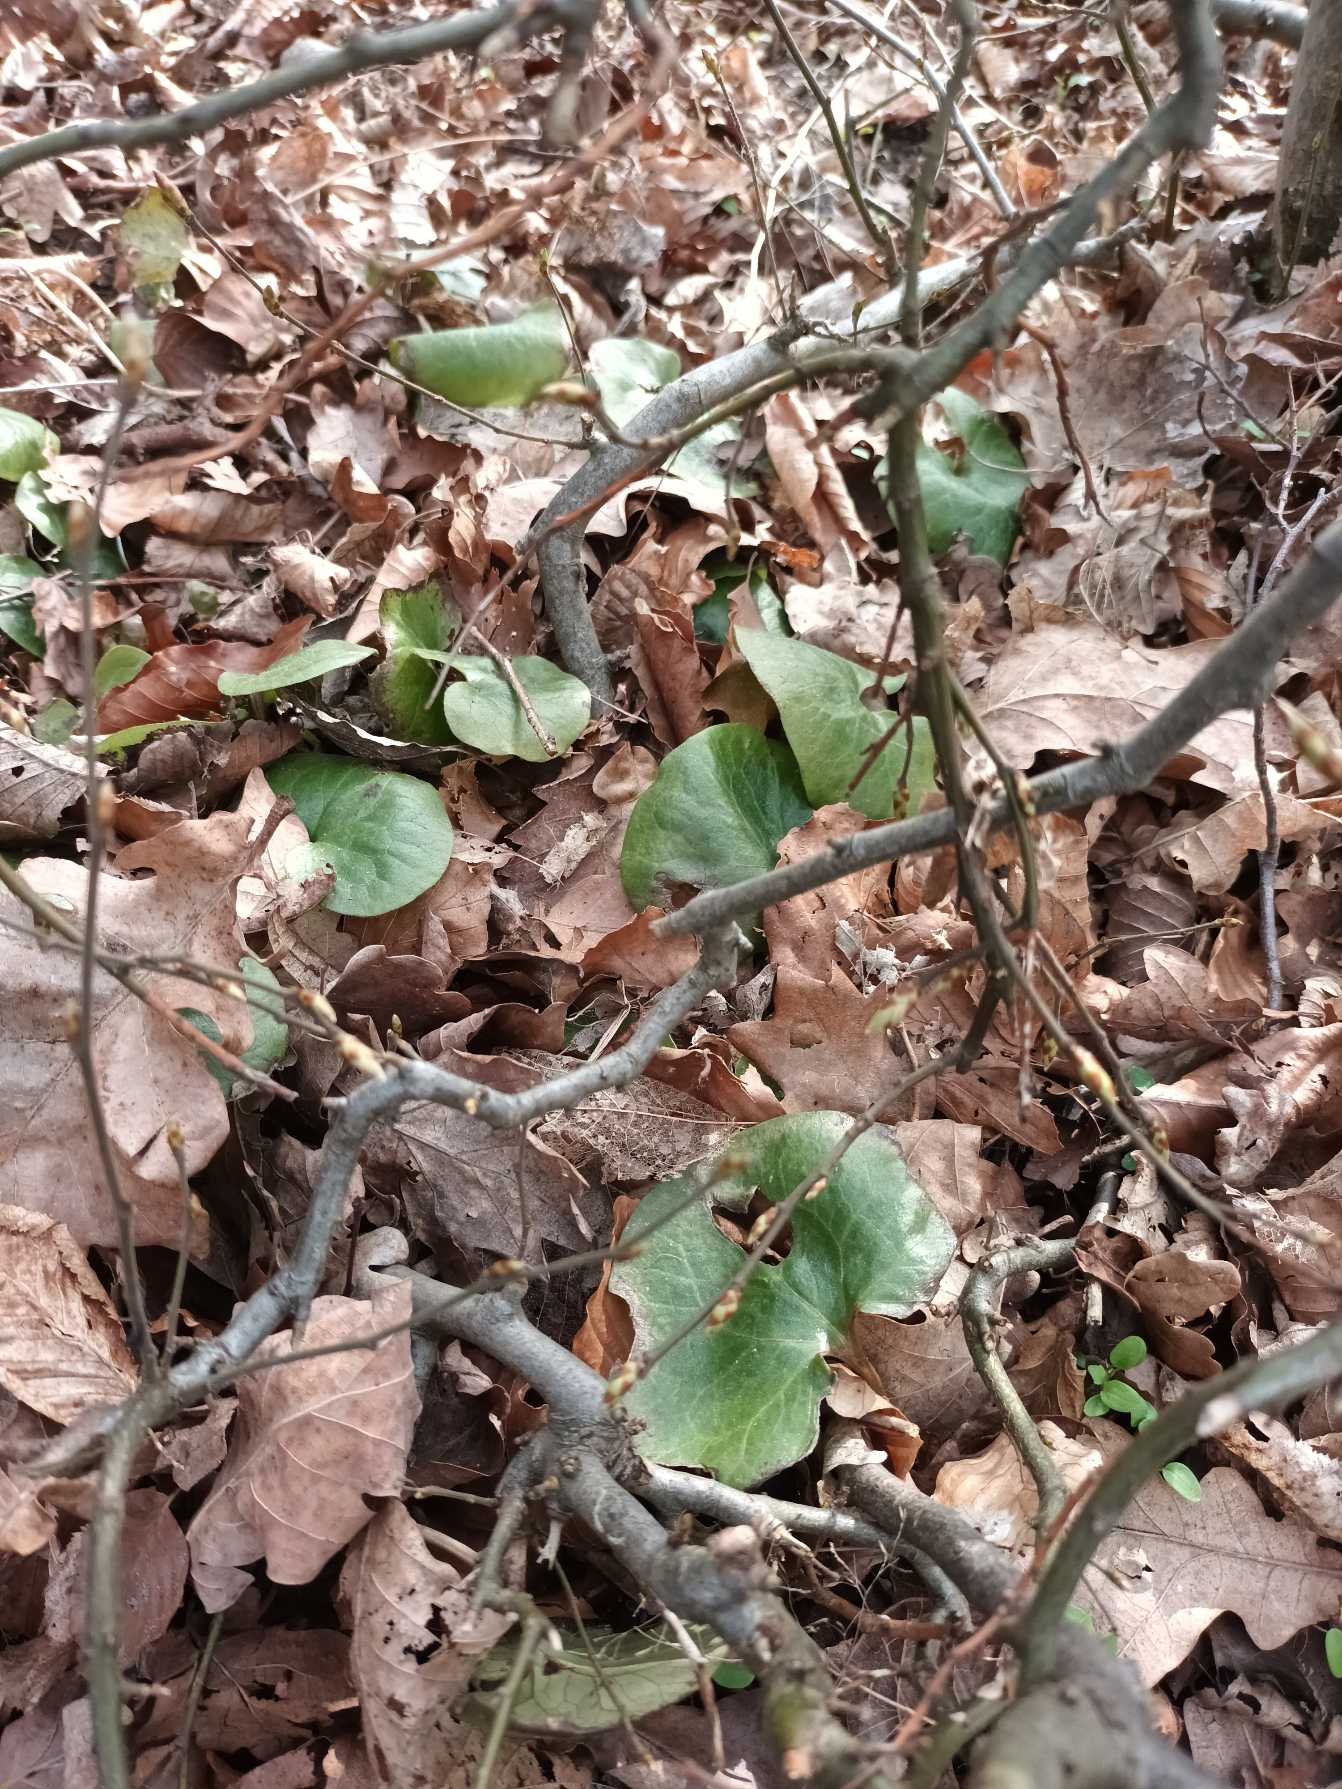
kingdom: Plantae
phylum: Tracheophyta
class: Magnoliopsida
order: Piperales
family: Aristolochiaceae
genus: Asarum
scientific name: Asarum europaeum
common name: Hasselurt
